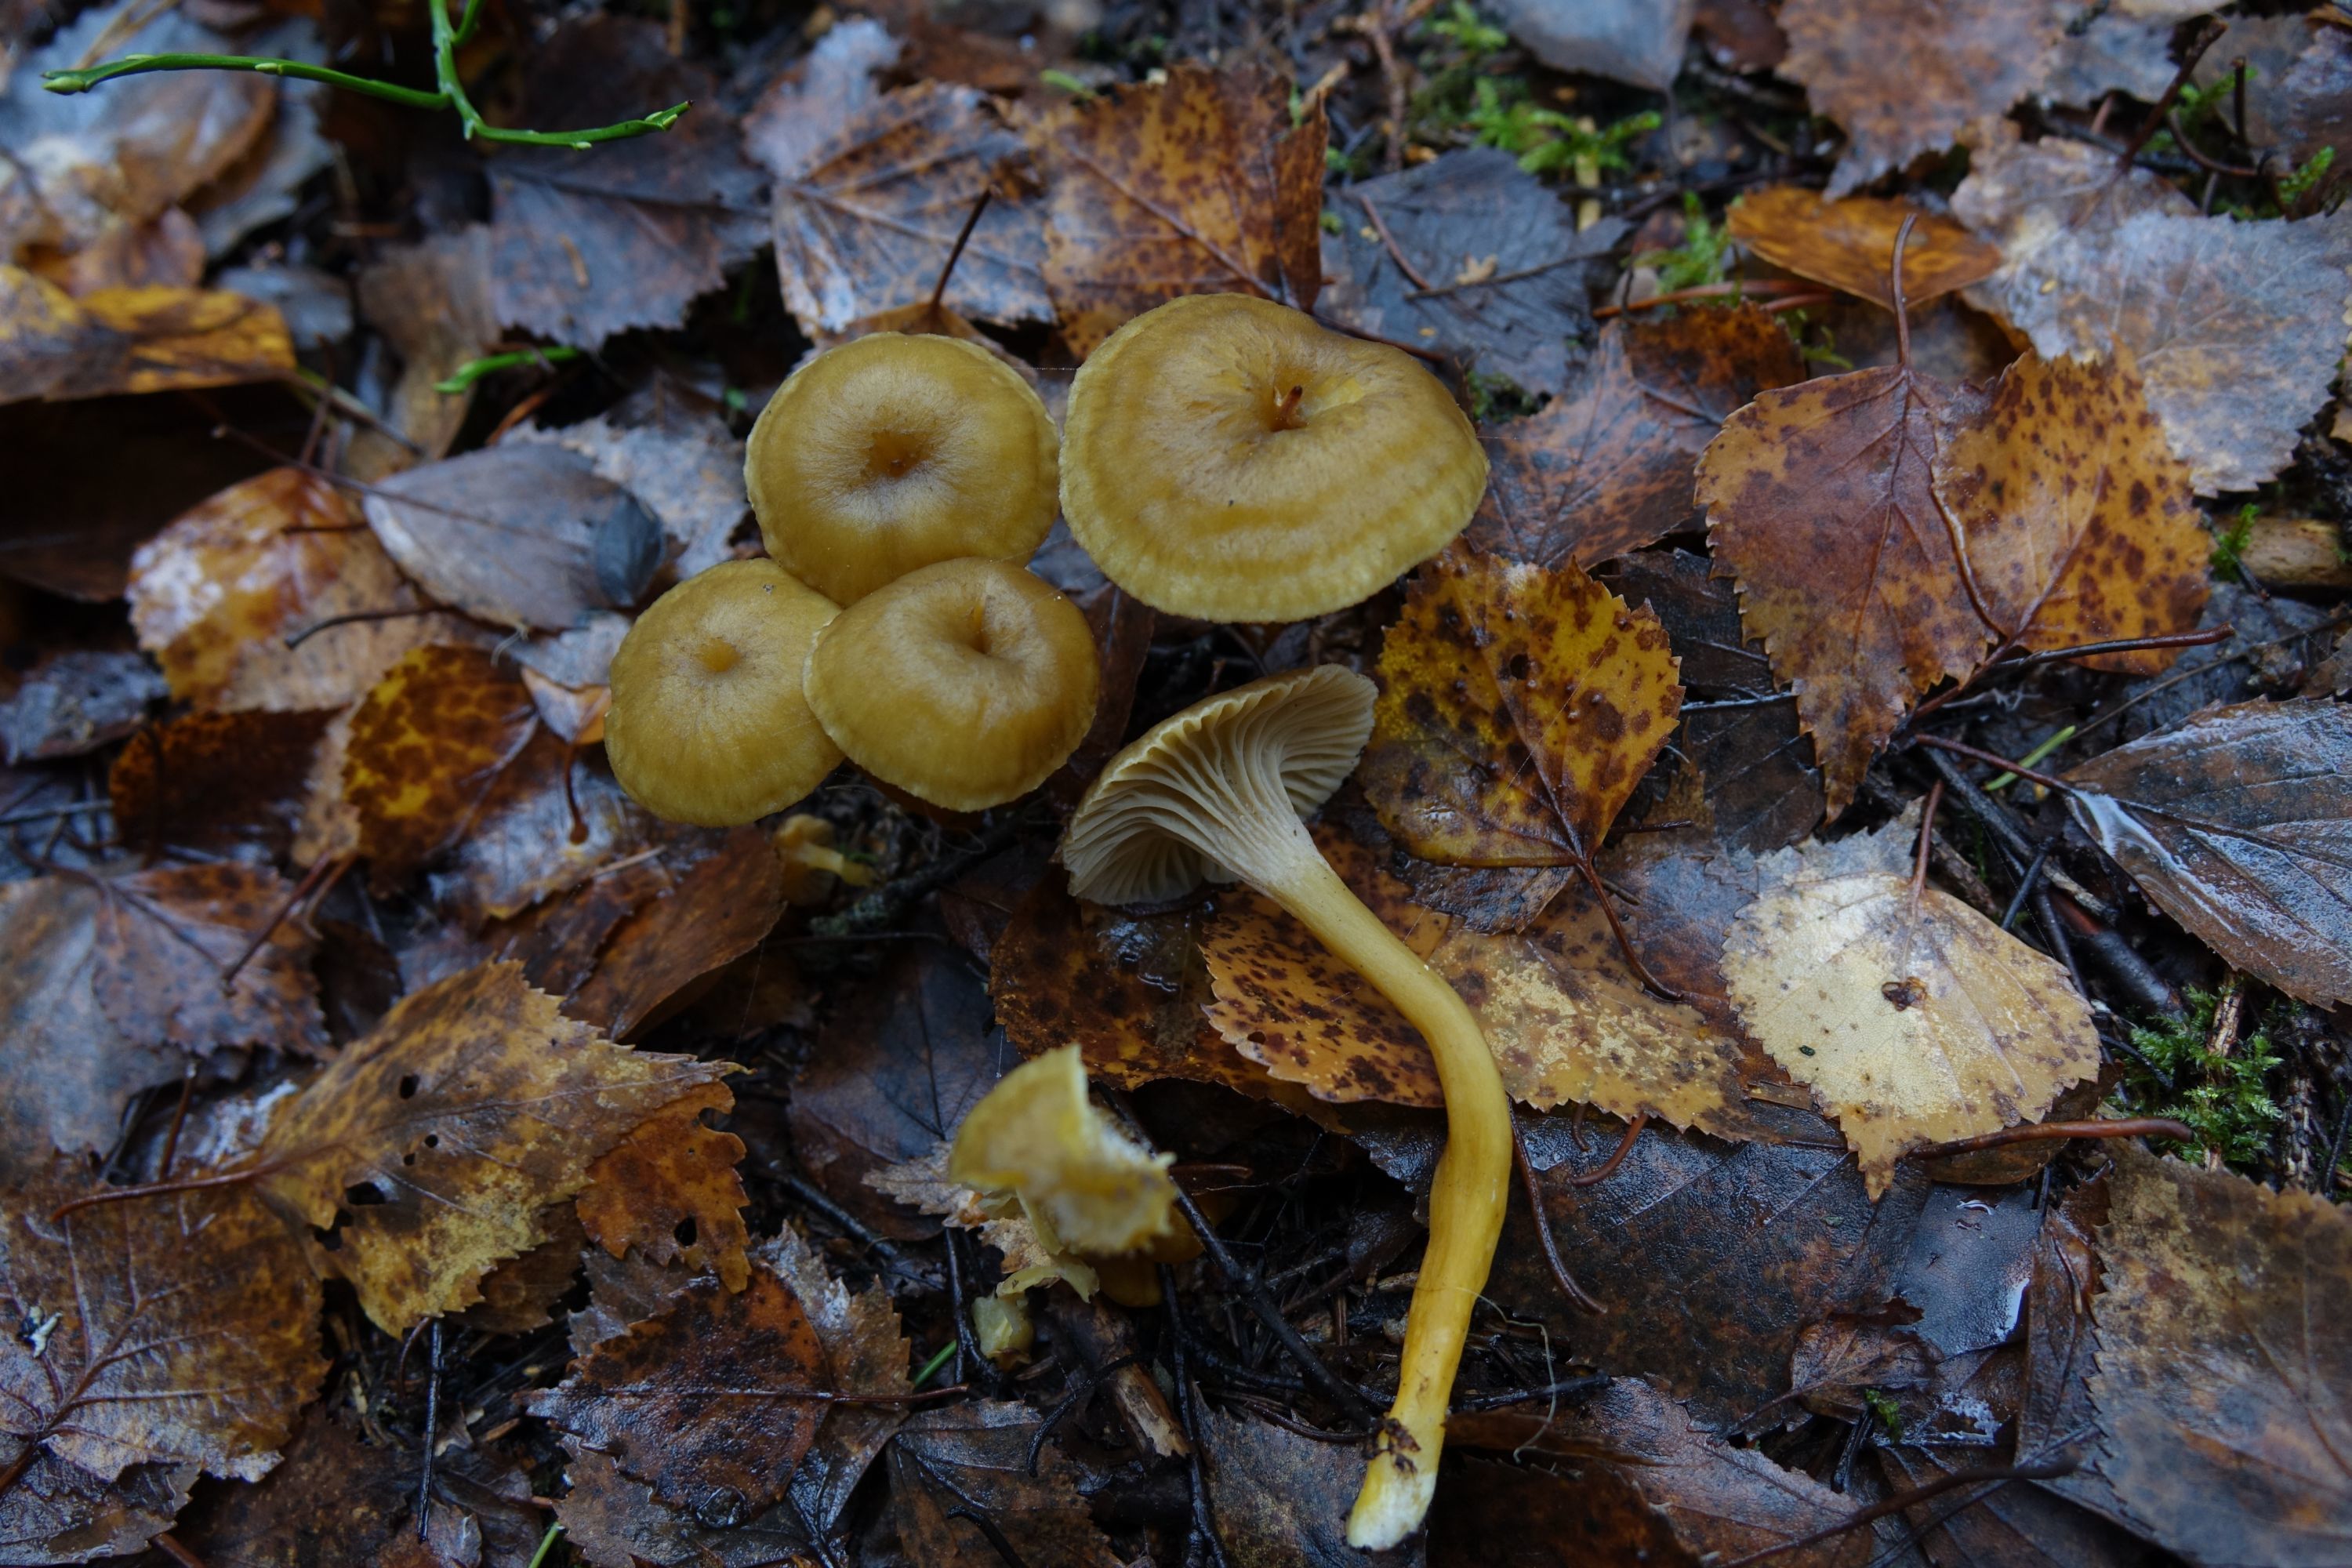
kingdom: Fungi
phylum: Basidiomycota
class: Agaricomycetes
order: Cantharellales
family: Hydnaceae
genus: Craterellus
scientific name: Craterellus tubaeformis
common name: Yellowfoot
